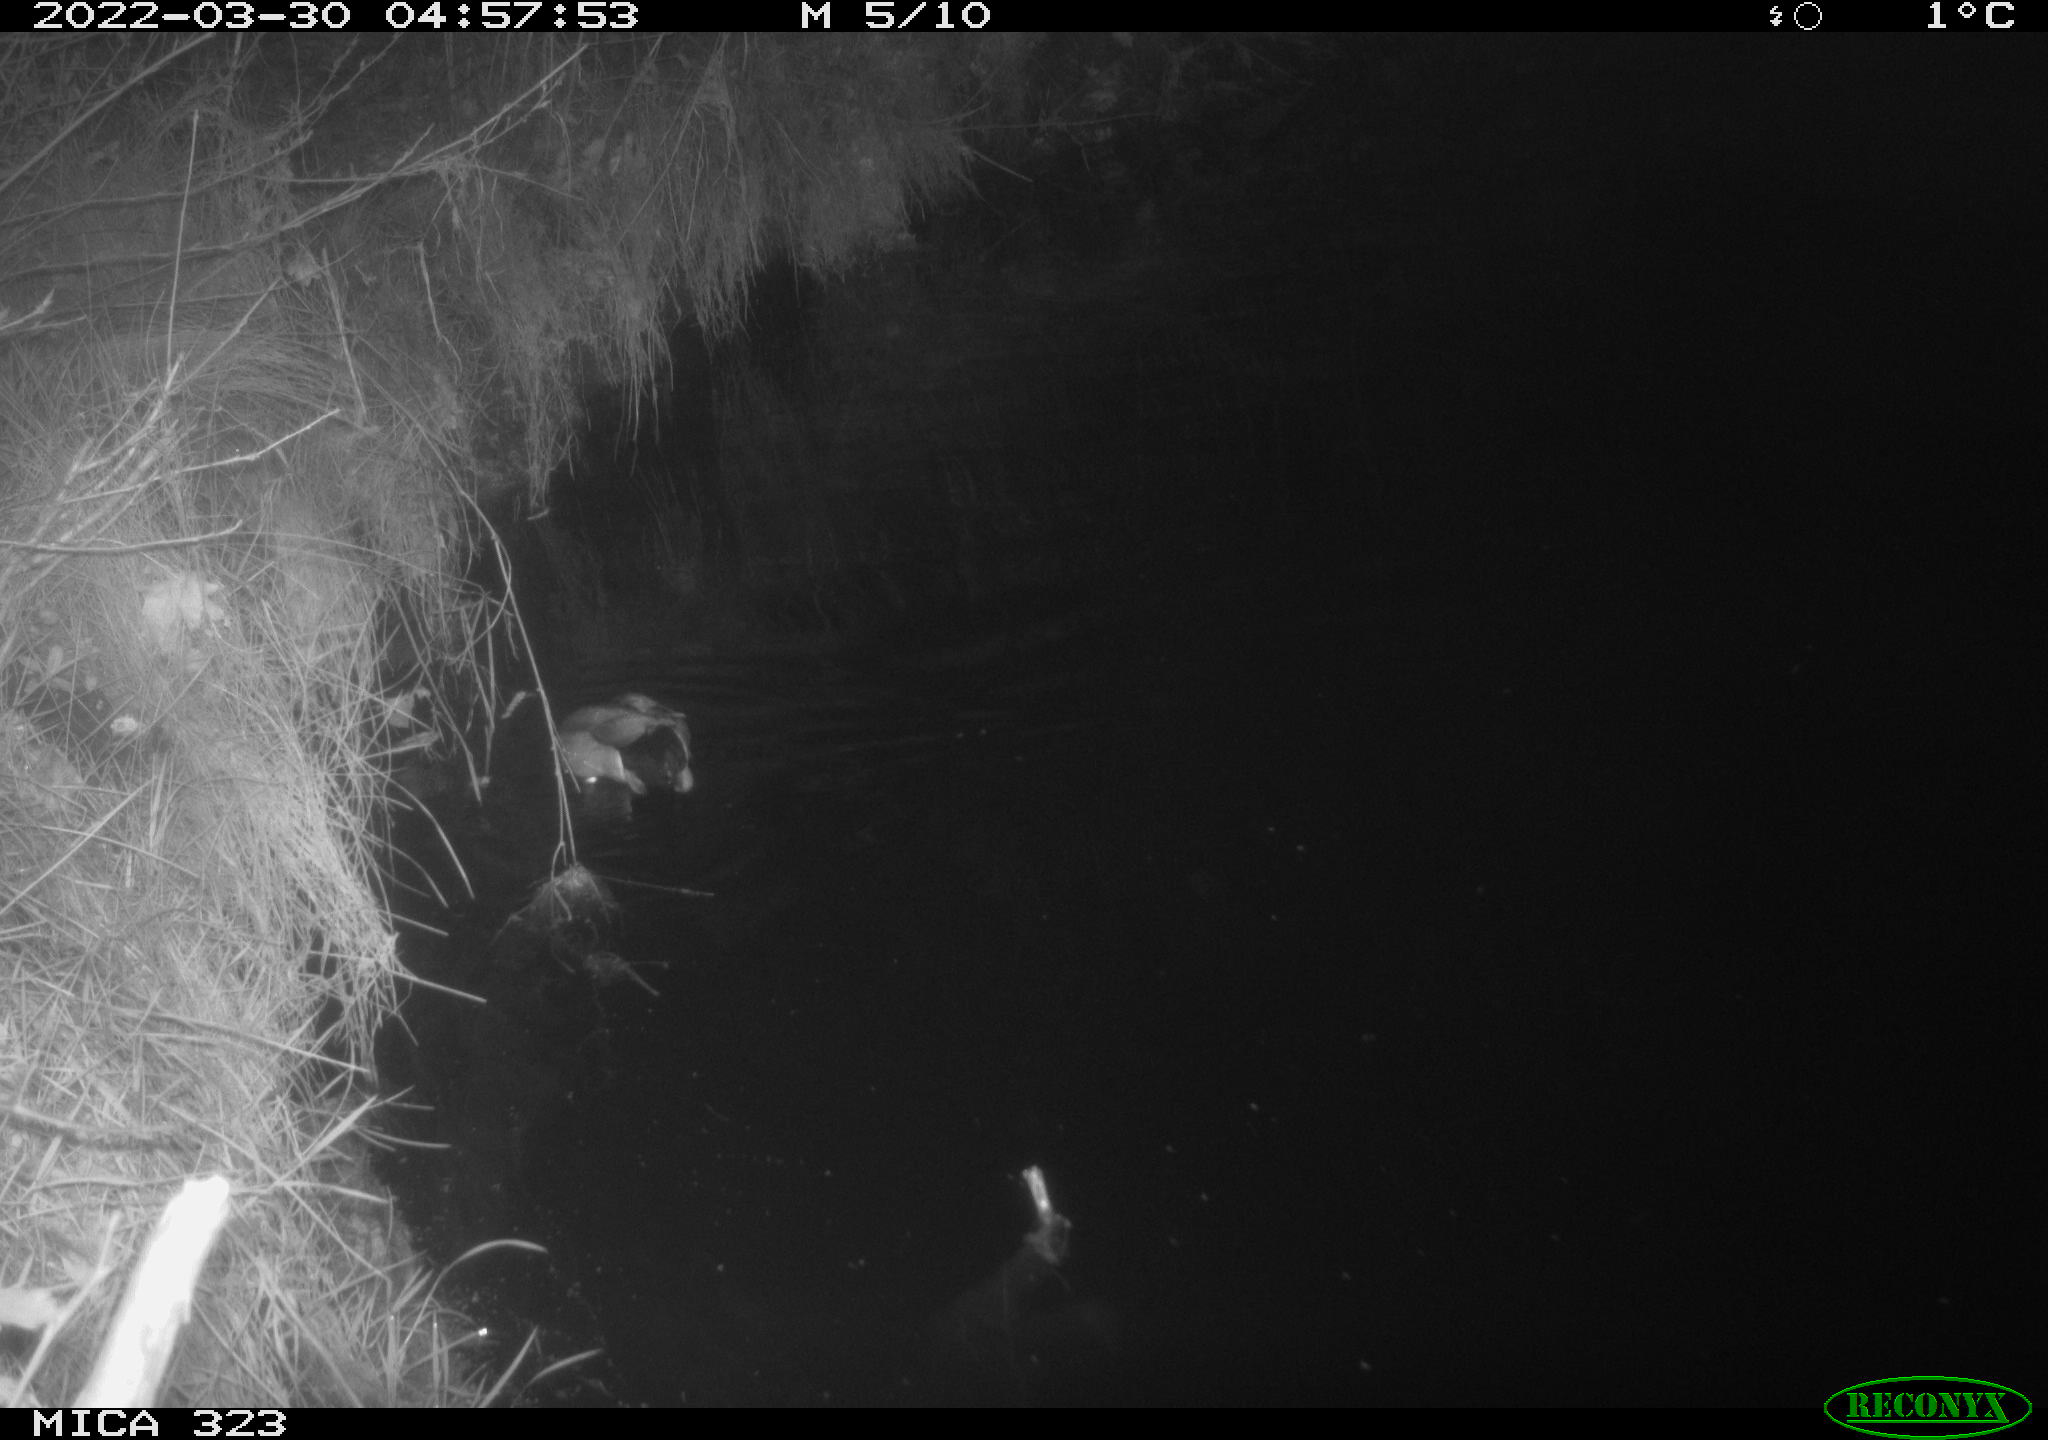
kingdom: Animalia
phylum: Chordata
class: Aves
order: Anseriformes
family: Anatidae
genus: Anas
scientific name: Anas platyrhynchos
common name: Mallard
